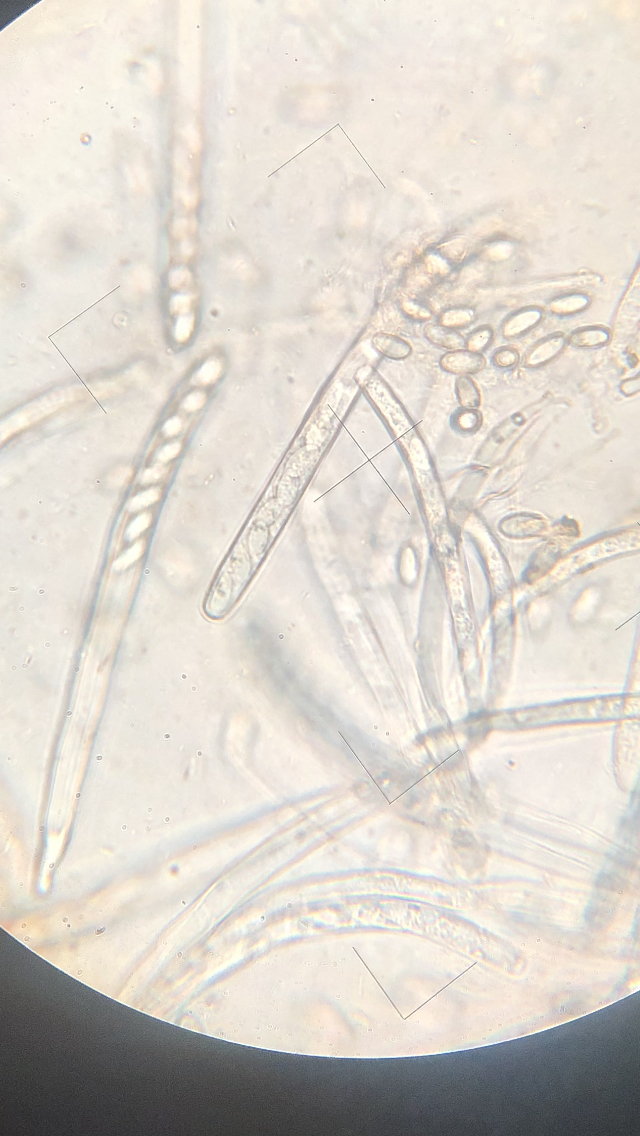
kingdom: Fungi
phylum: Ascomycota
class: Leotiomycetes
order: Helotiales
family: Sclerotiniaceae
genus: Dumontinia
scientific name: Dumontinia tuberosa
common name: anemone-knoldskive
